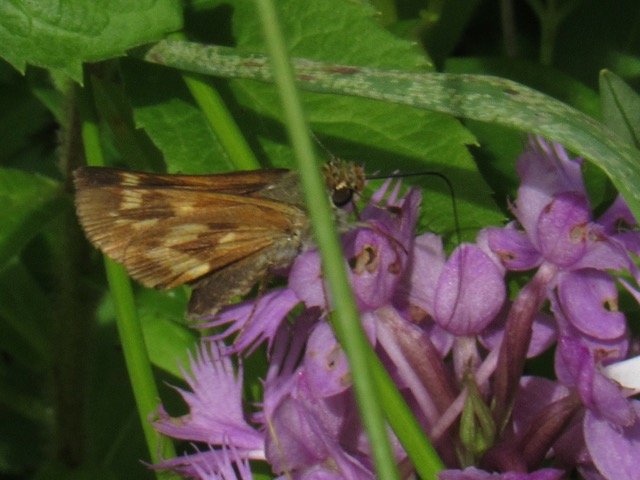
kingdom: Animalia
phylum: Arthropoda
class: Insecta
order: Lepidoptera
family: Hesperiidae
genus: Polites
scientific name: Polites
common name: Long Dash Skipper
